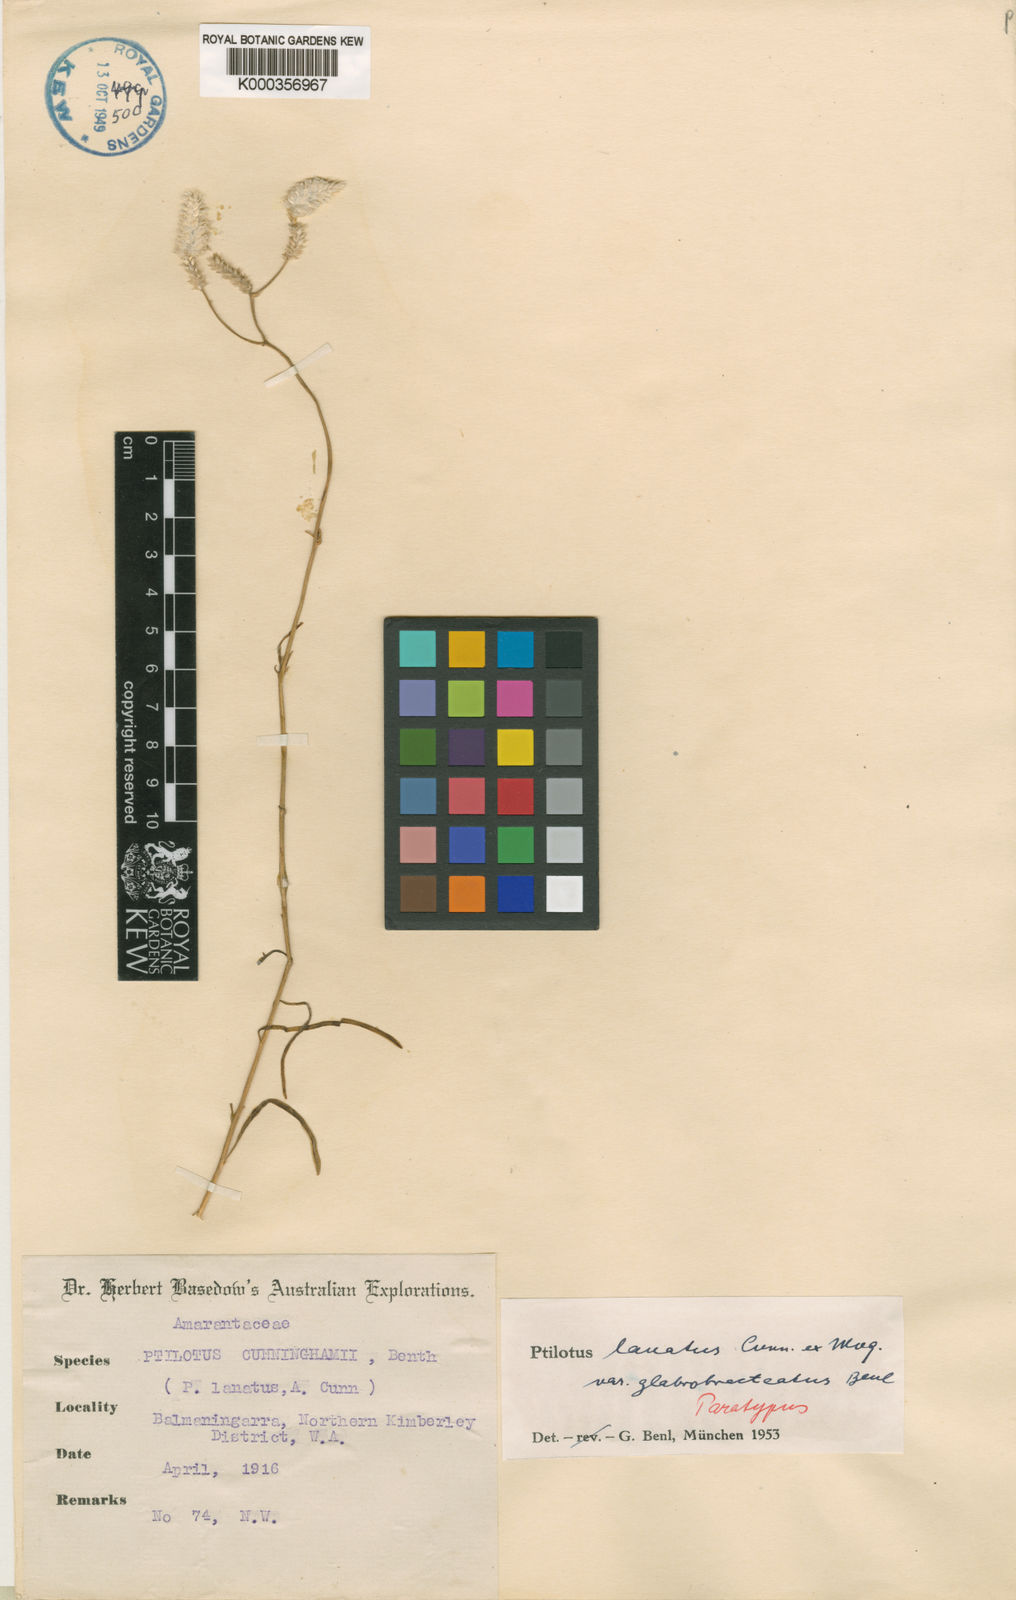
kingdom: Plantae
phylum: Tracheophyta
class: Magnoliopsida
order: Caryophyllales
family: Amaranthaceae
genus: Ptilotus
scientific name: Ptilotus lanatus
